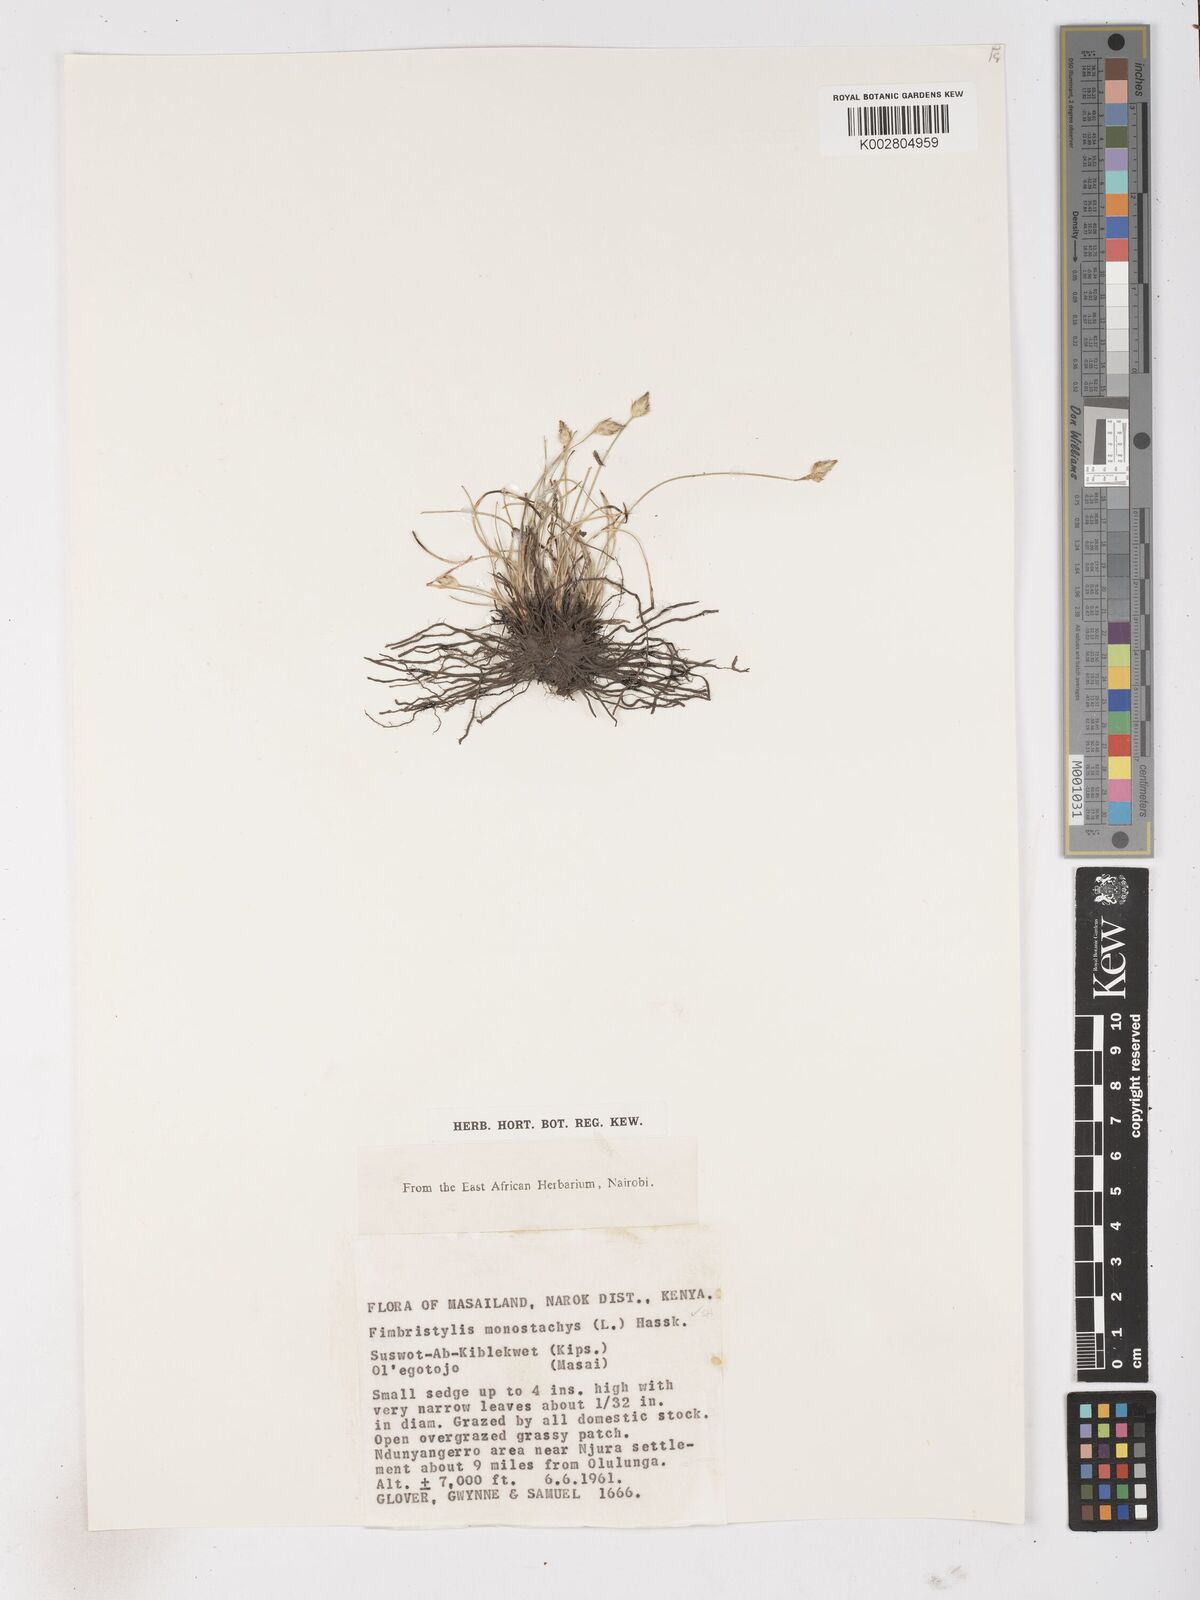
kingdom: Plantae
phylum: Tracheophyta
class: Liliopsida
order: Poales
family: Cyperaceae
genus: Abildgaardia
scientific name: Abildgaardia ovata
